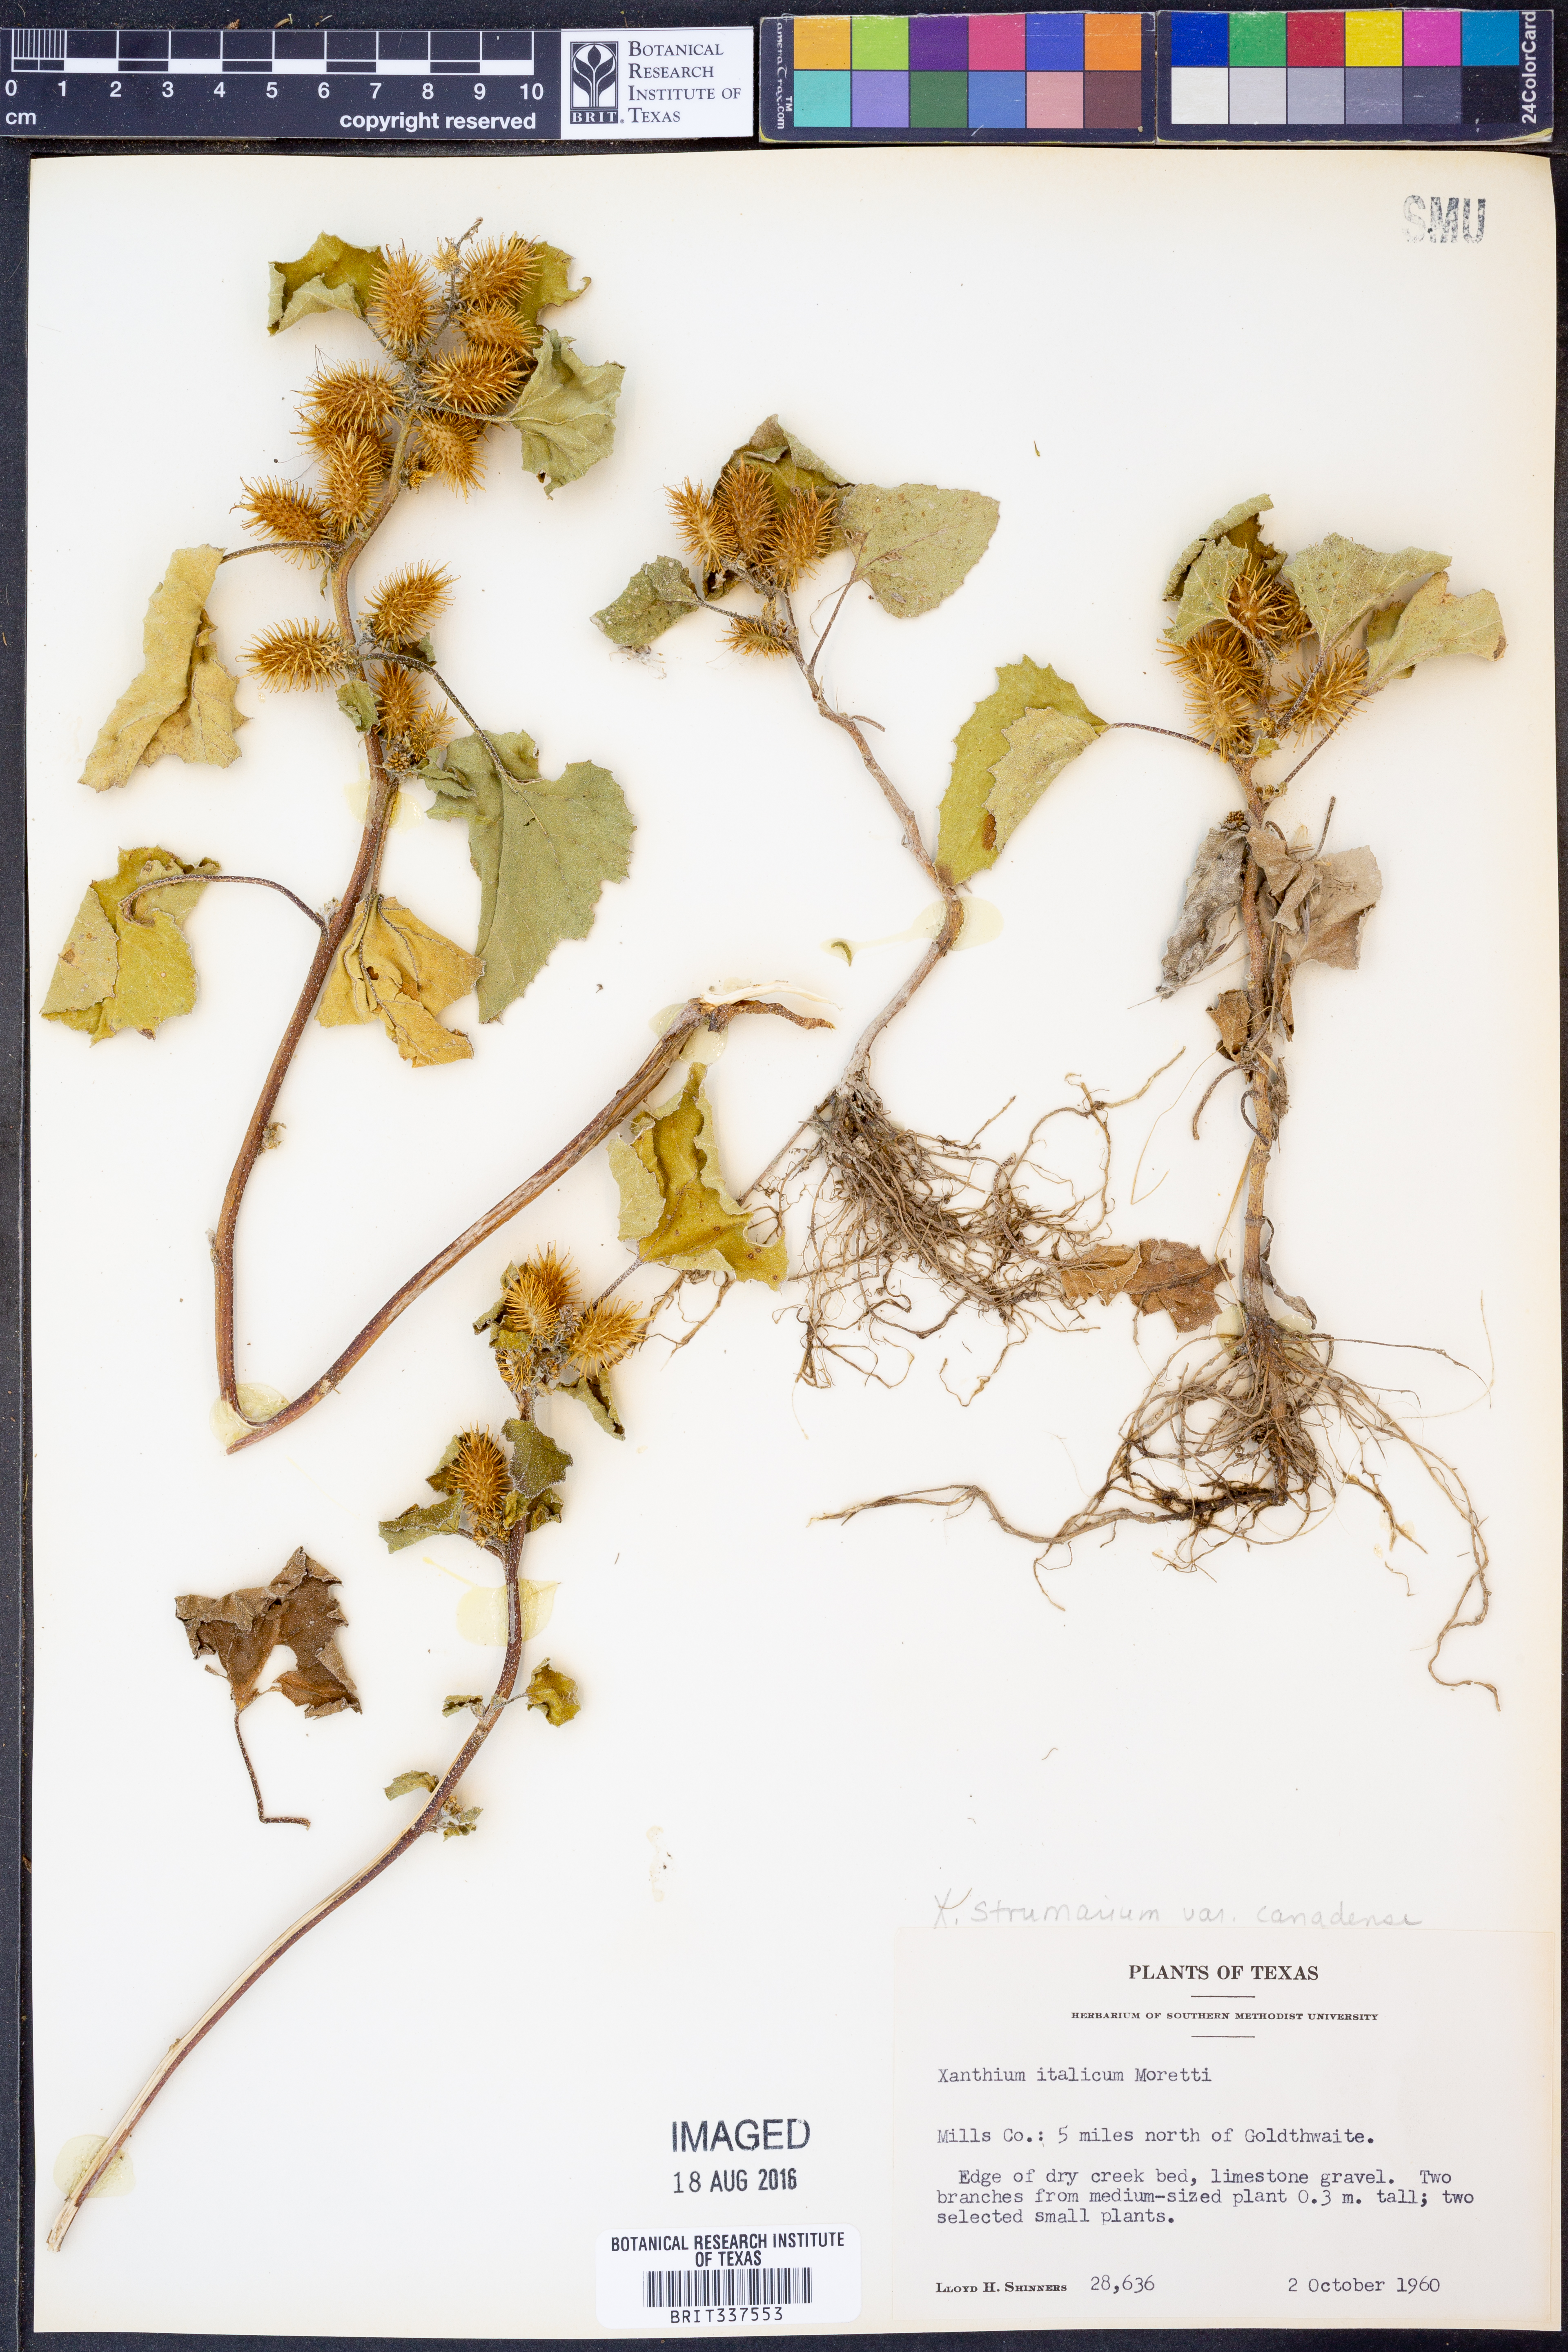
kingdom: Plantae
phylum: Tracheophyta
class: Magnoliopsida
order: Asterales
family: Asteraceae
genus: Xanthium
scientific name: Xanthium orientale
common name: Californian burr
